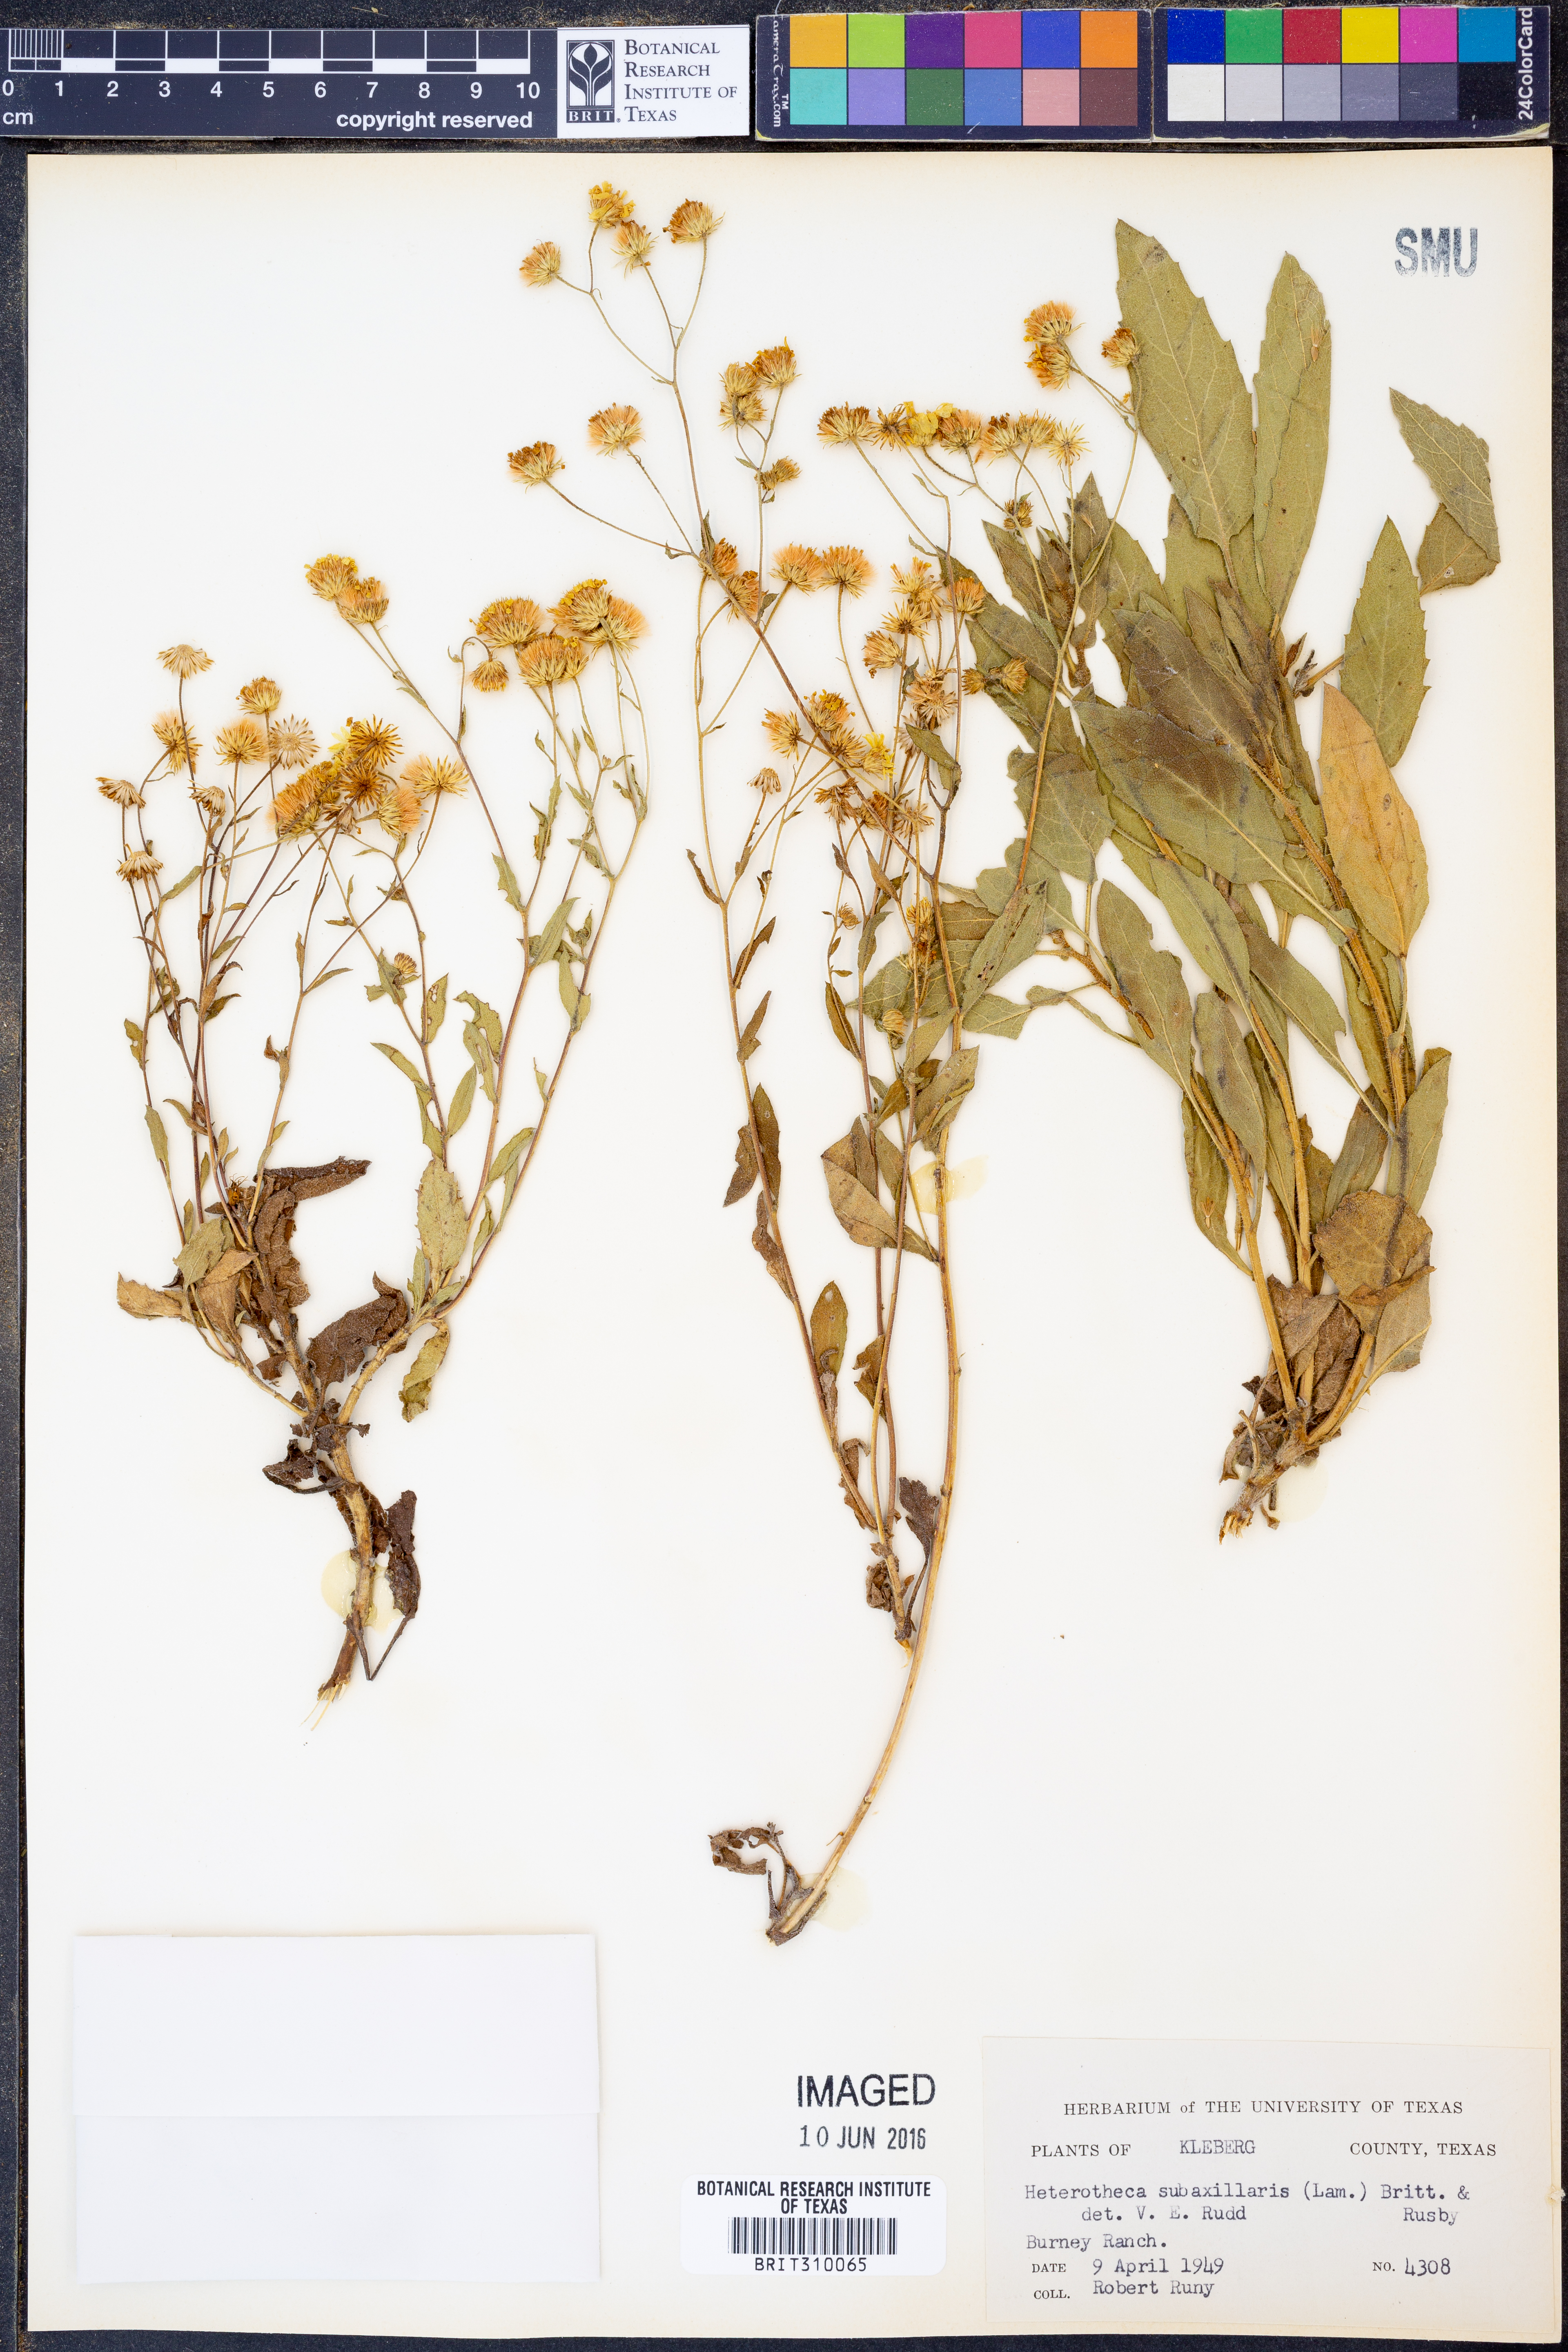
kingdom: Plantae
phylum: Tracheophyta
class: Magnoliopsida
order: Asterales
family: Asteraceae
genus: Heterotheca
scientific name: Heterotheca subaxillaris
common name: Camphorweed
